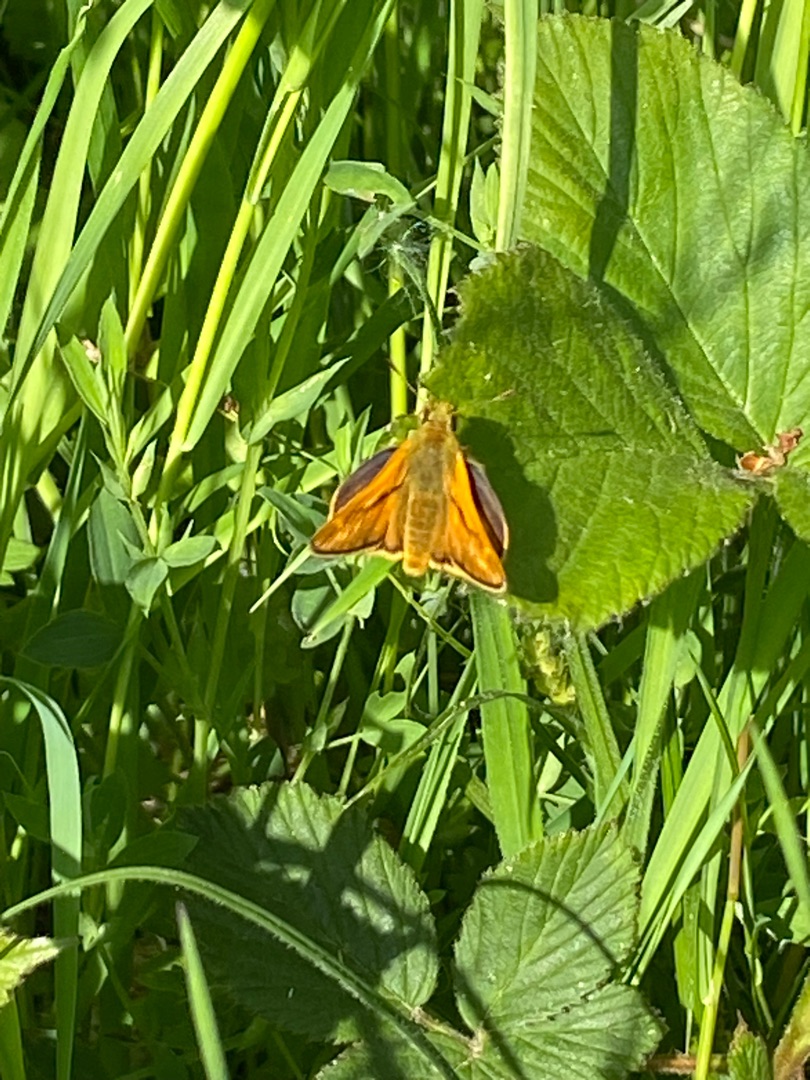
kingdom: Animalia
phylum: Arthropoda
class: Insecta
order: Lepidoptera
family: Hesperiidae
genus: Ochlodes
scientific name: Ochlodes venata
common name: Stor bredpande
